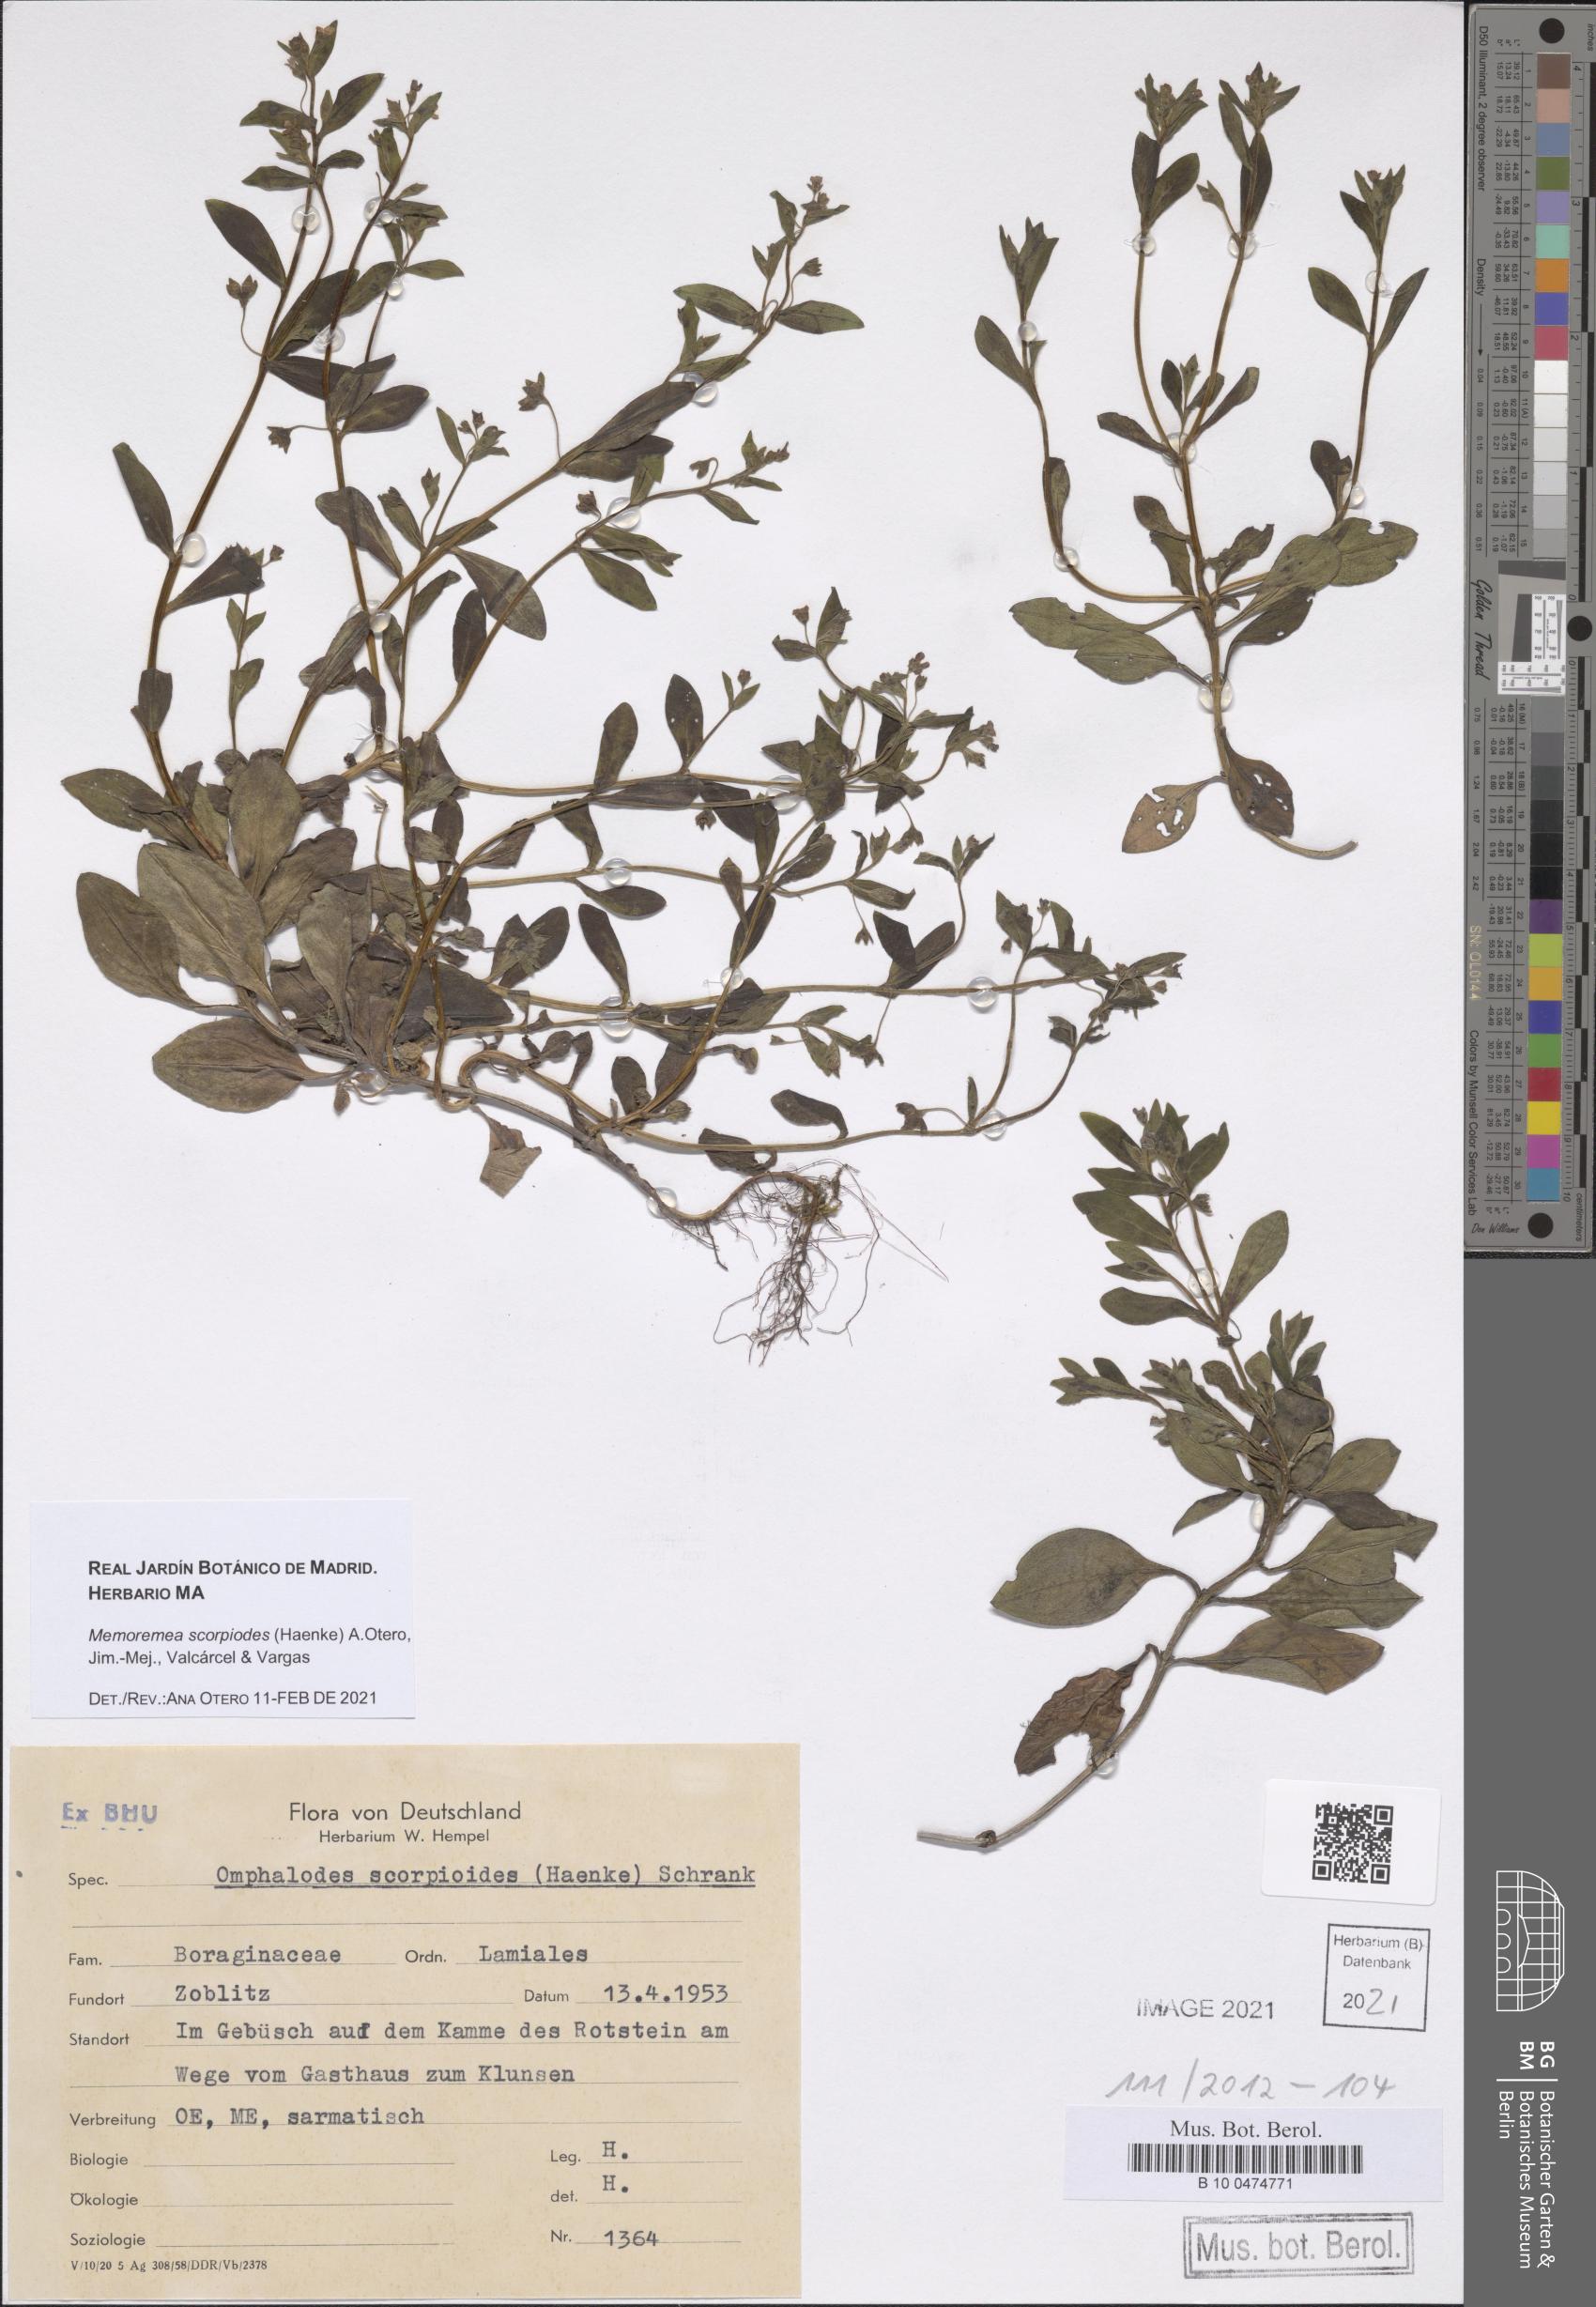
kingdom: Plantae
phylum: Tracheophyta
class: Magnoliopsida
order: Boraginales
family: Boraginaceae
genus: Memoremea
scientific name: Memoremea scorpioides
